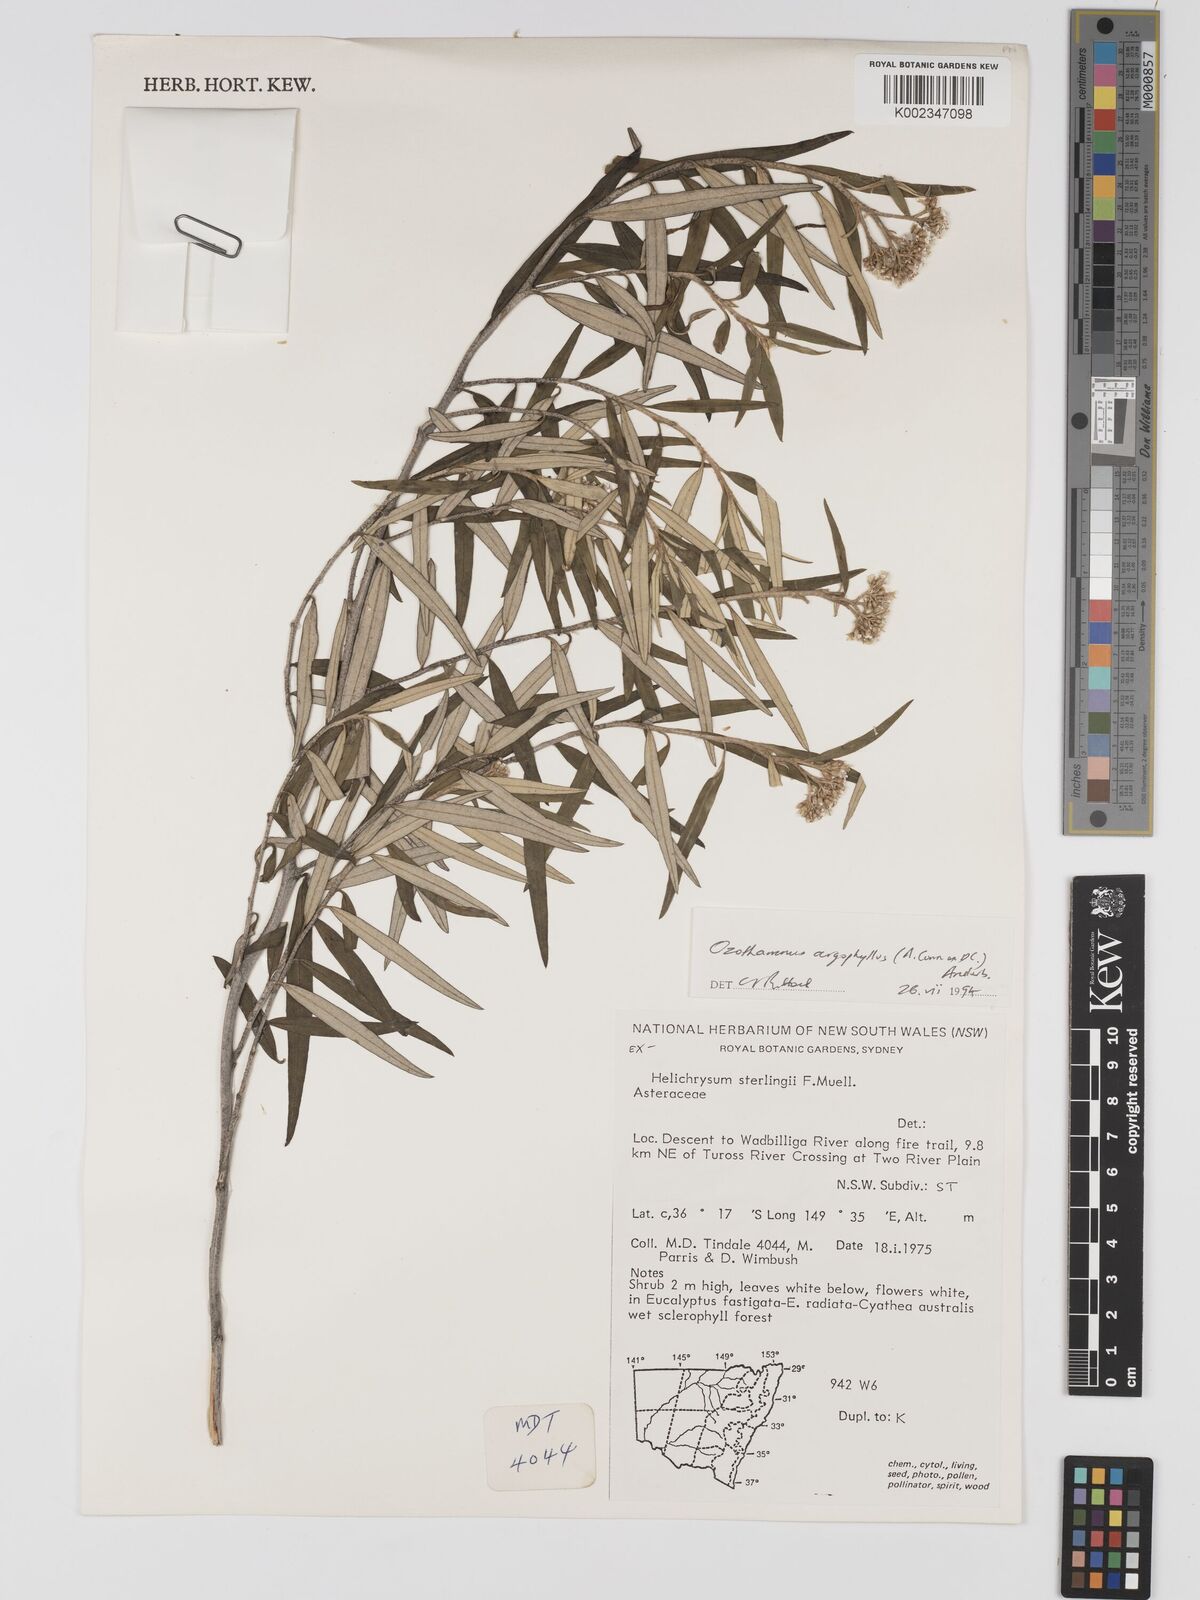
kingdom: Plantae
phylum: Tracheophyta
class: Magnoliopsida
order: Asterales
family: Asteraceae
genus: Ozothamnus
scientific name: Ozothamnus argophyllus
